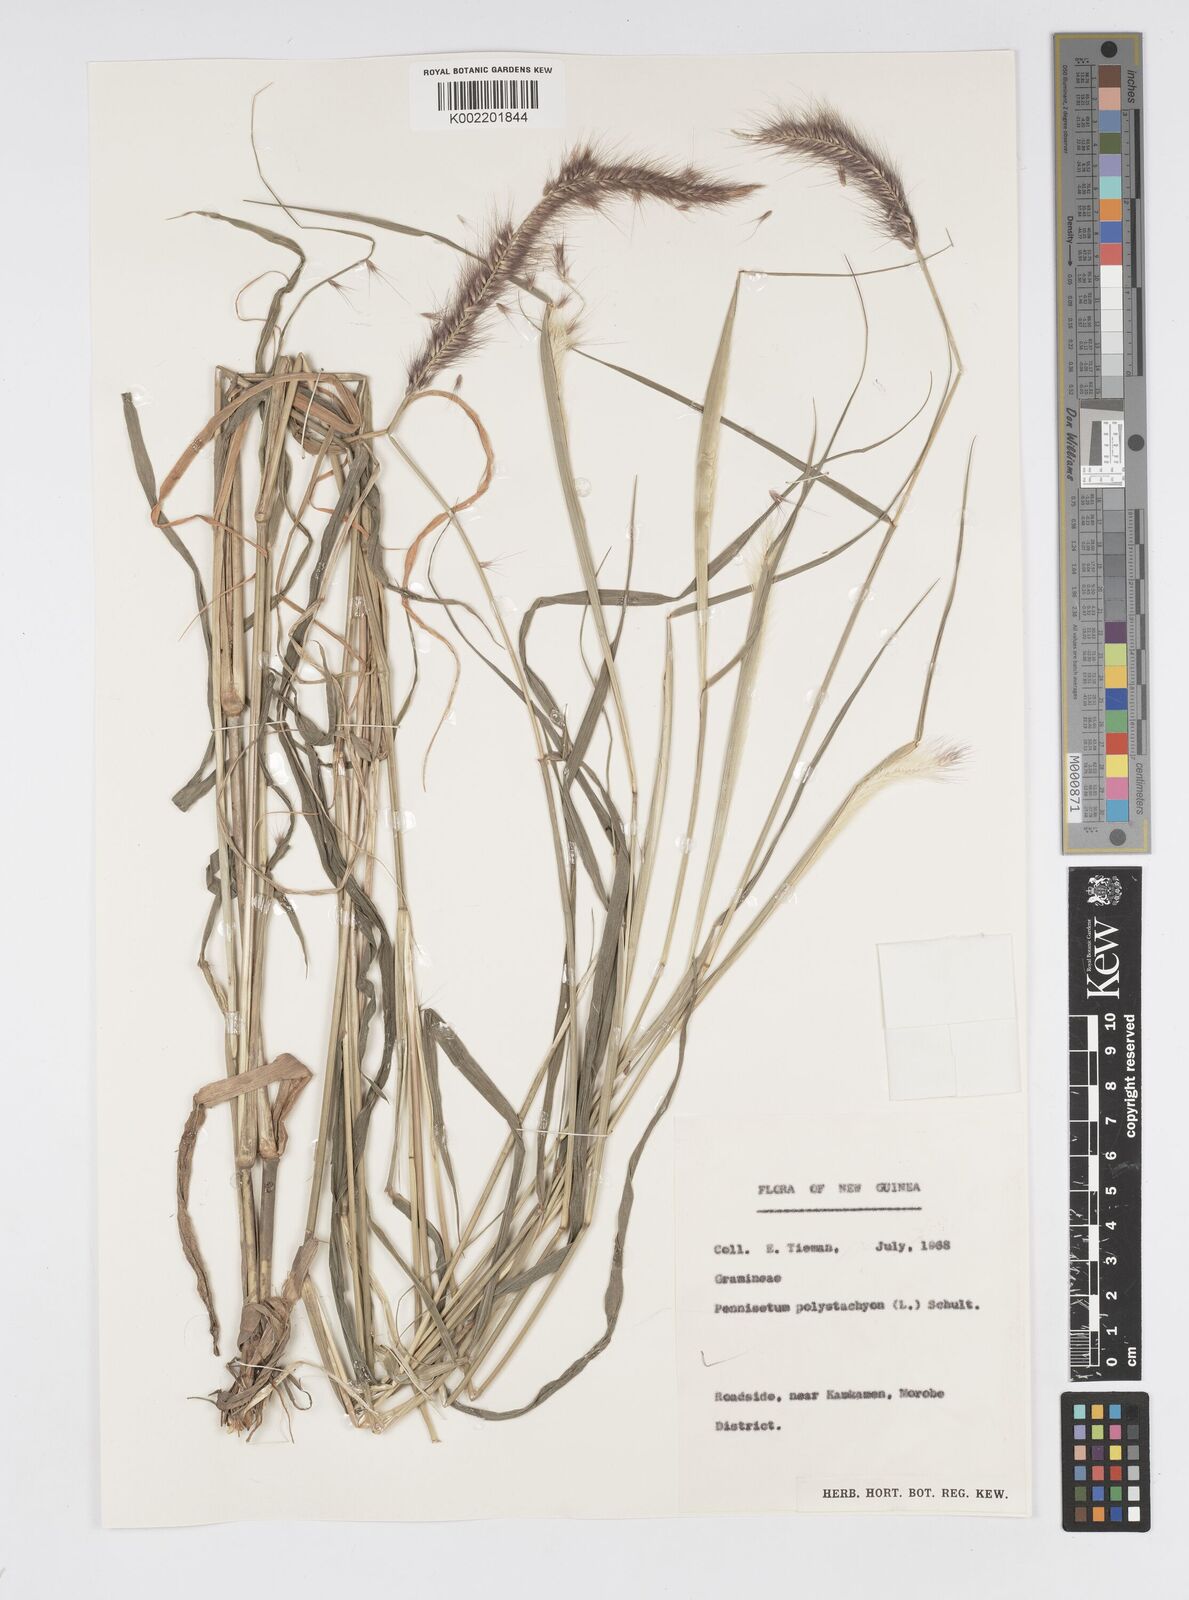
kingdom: Plantae
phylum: Tracheophyta
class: Liliopsida
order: Poales
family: Poaceae
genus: Setaria
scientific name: Setaria parviflora
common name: Knotroot bristle-grass
